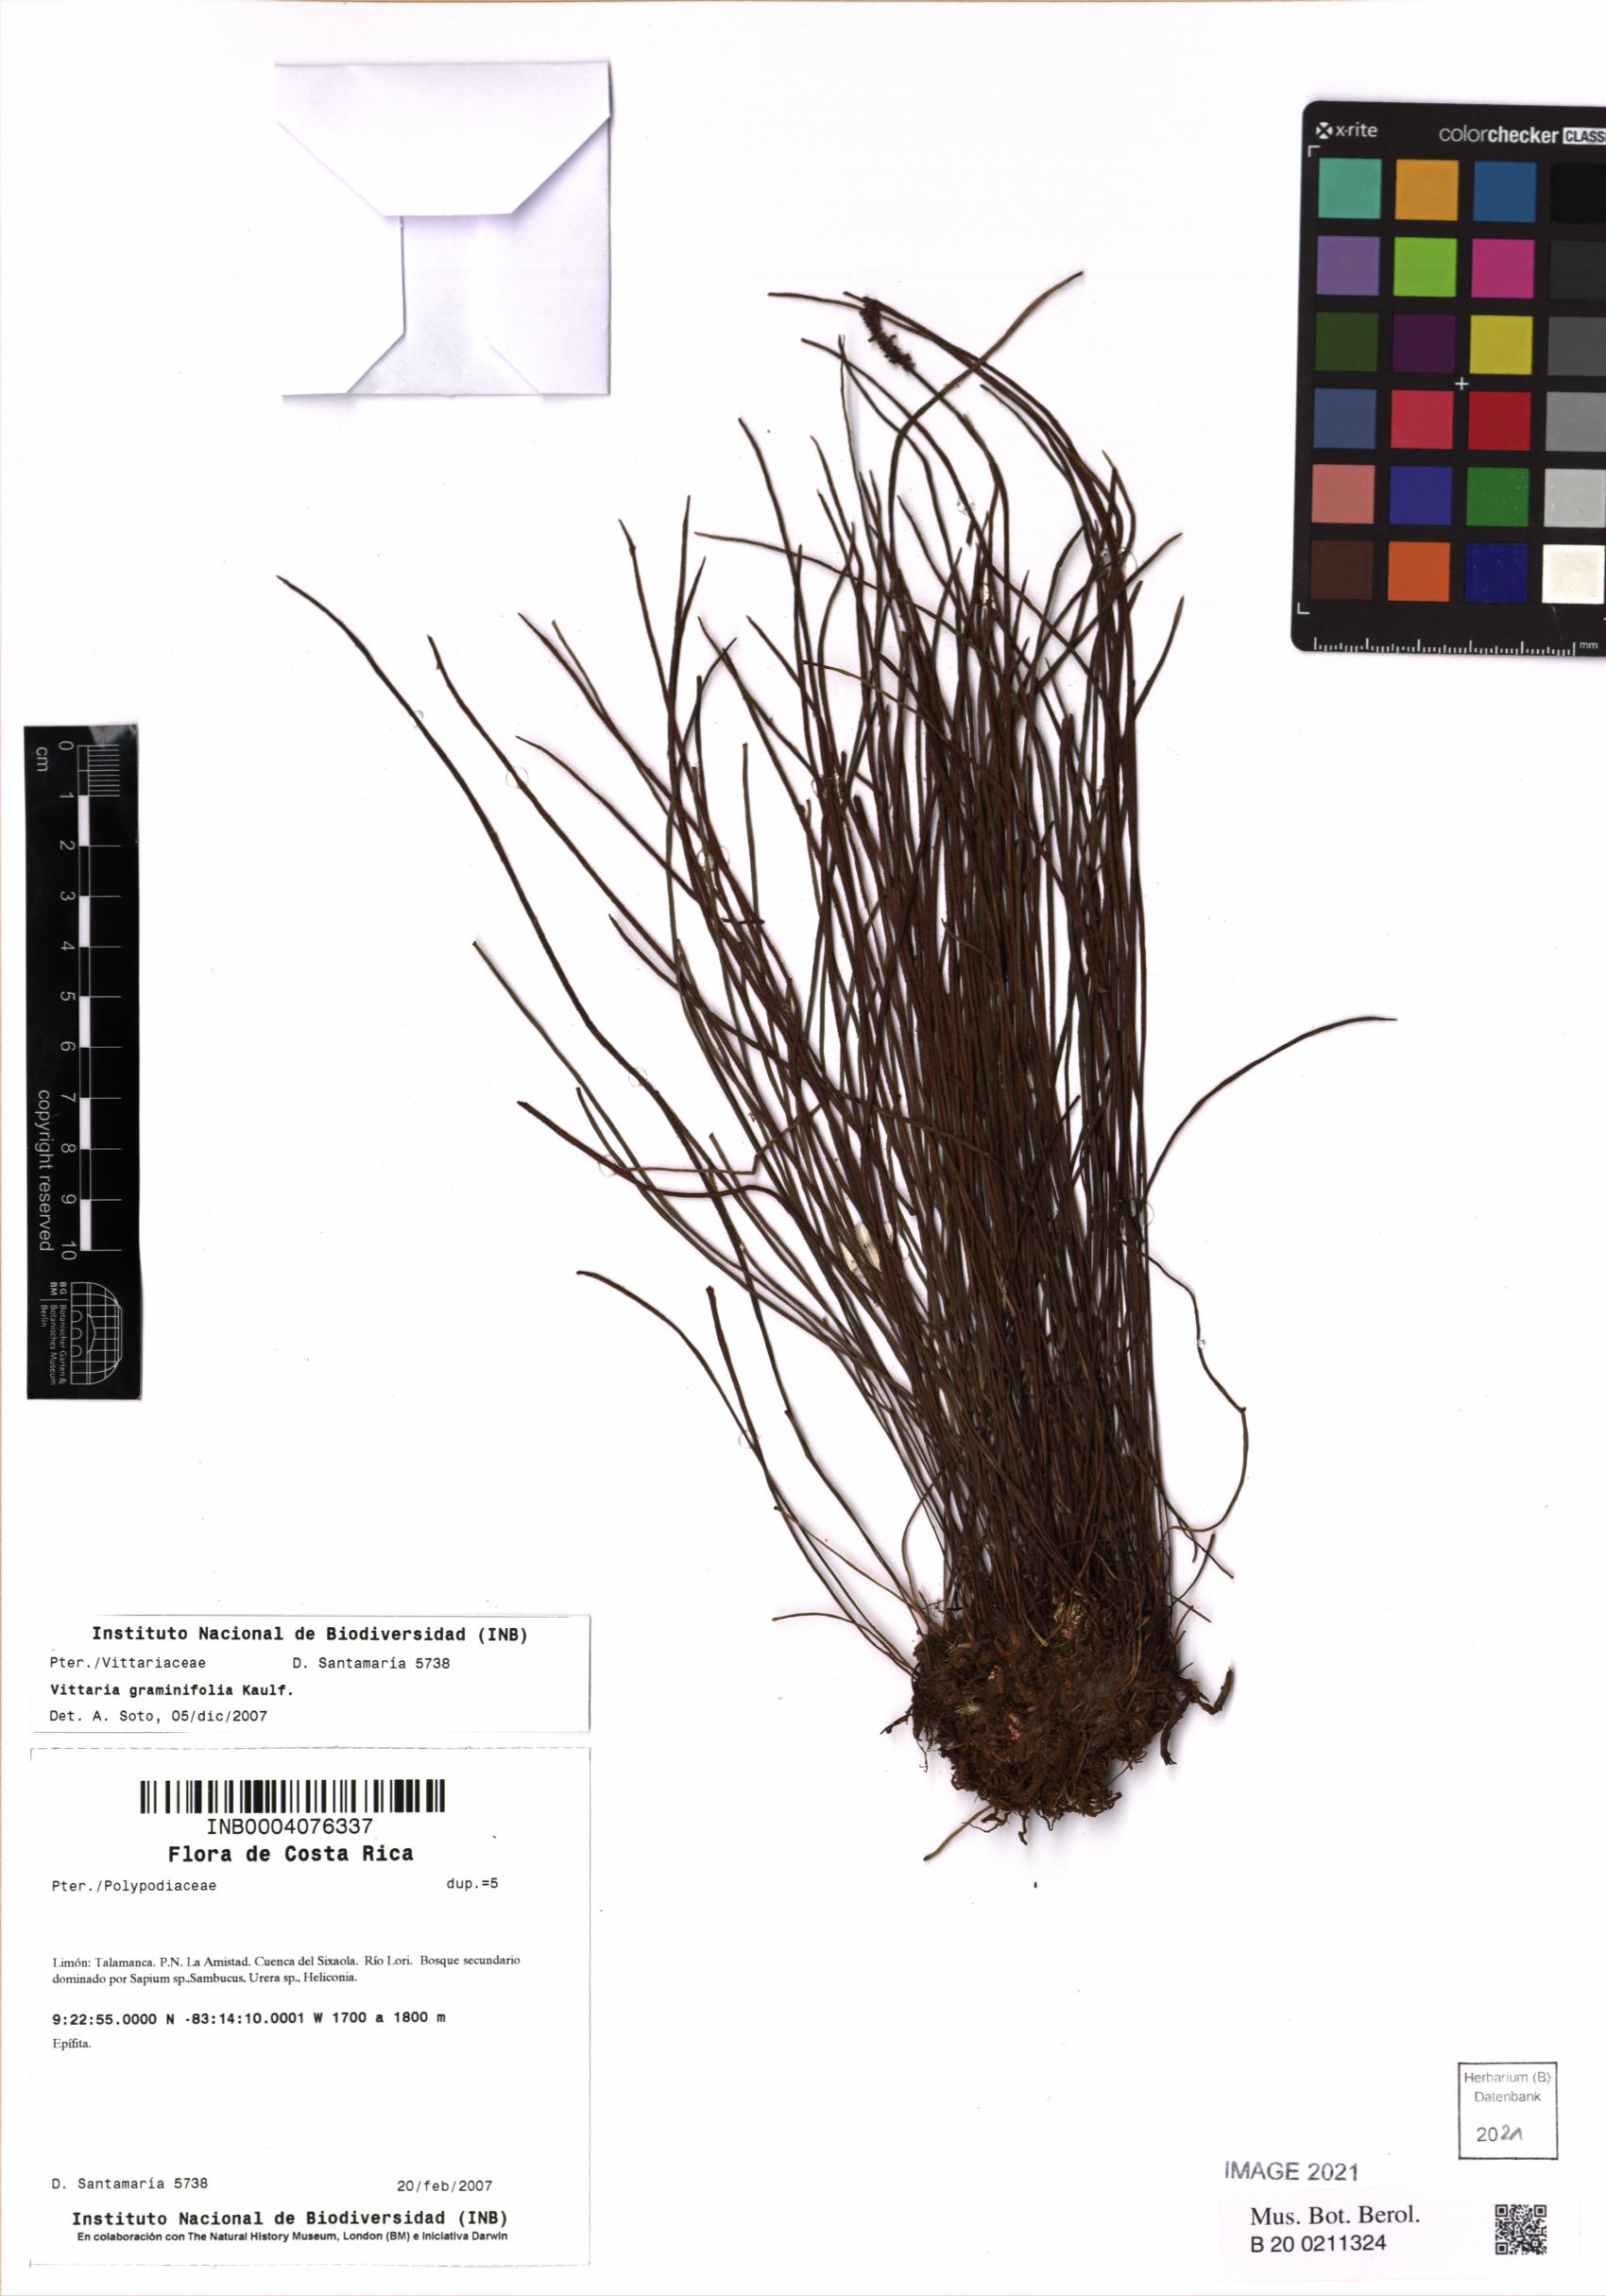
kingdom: Plantae
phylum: Tracheophyta
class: Polypodiopsida
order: Polypodiales
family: Pteridaceae
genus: Vittaria
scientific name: Vittaria graminifolia
